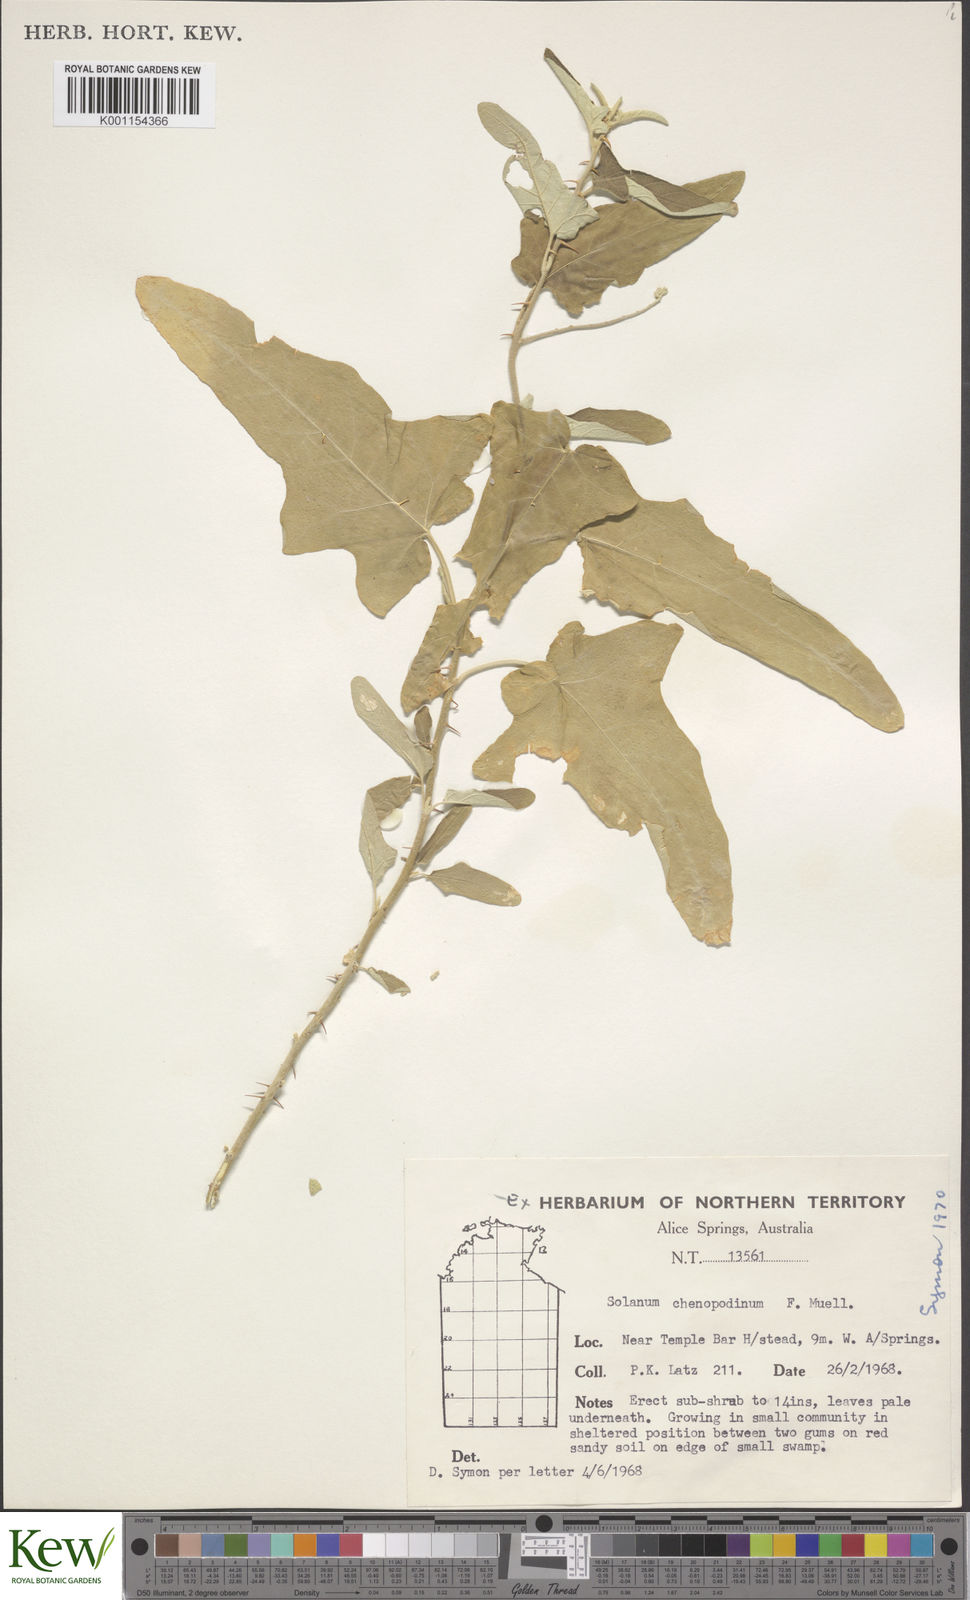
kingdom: Plantae
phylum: Tracheophyta
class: Magnoliopsida
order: Solanales
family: Solanaceae
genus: Solanum
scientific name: Solanum chenopodinum
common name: Goosefoot potato-bush
